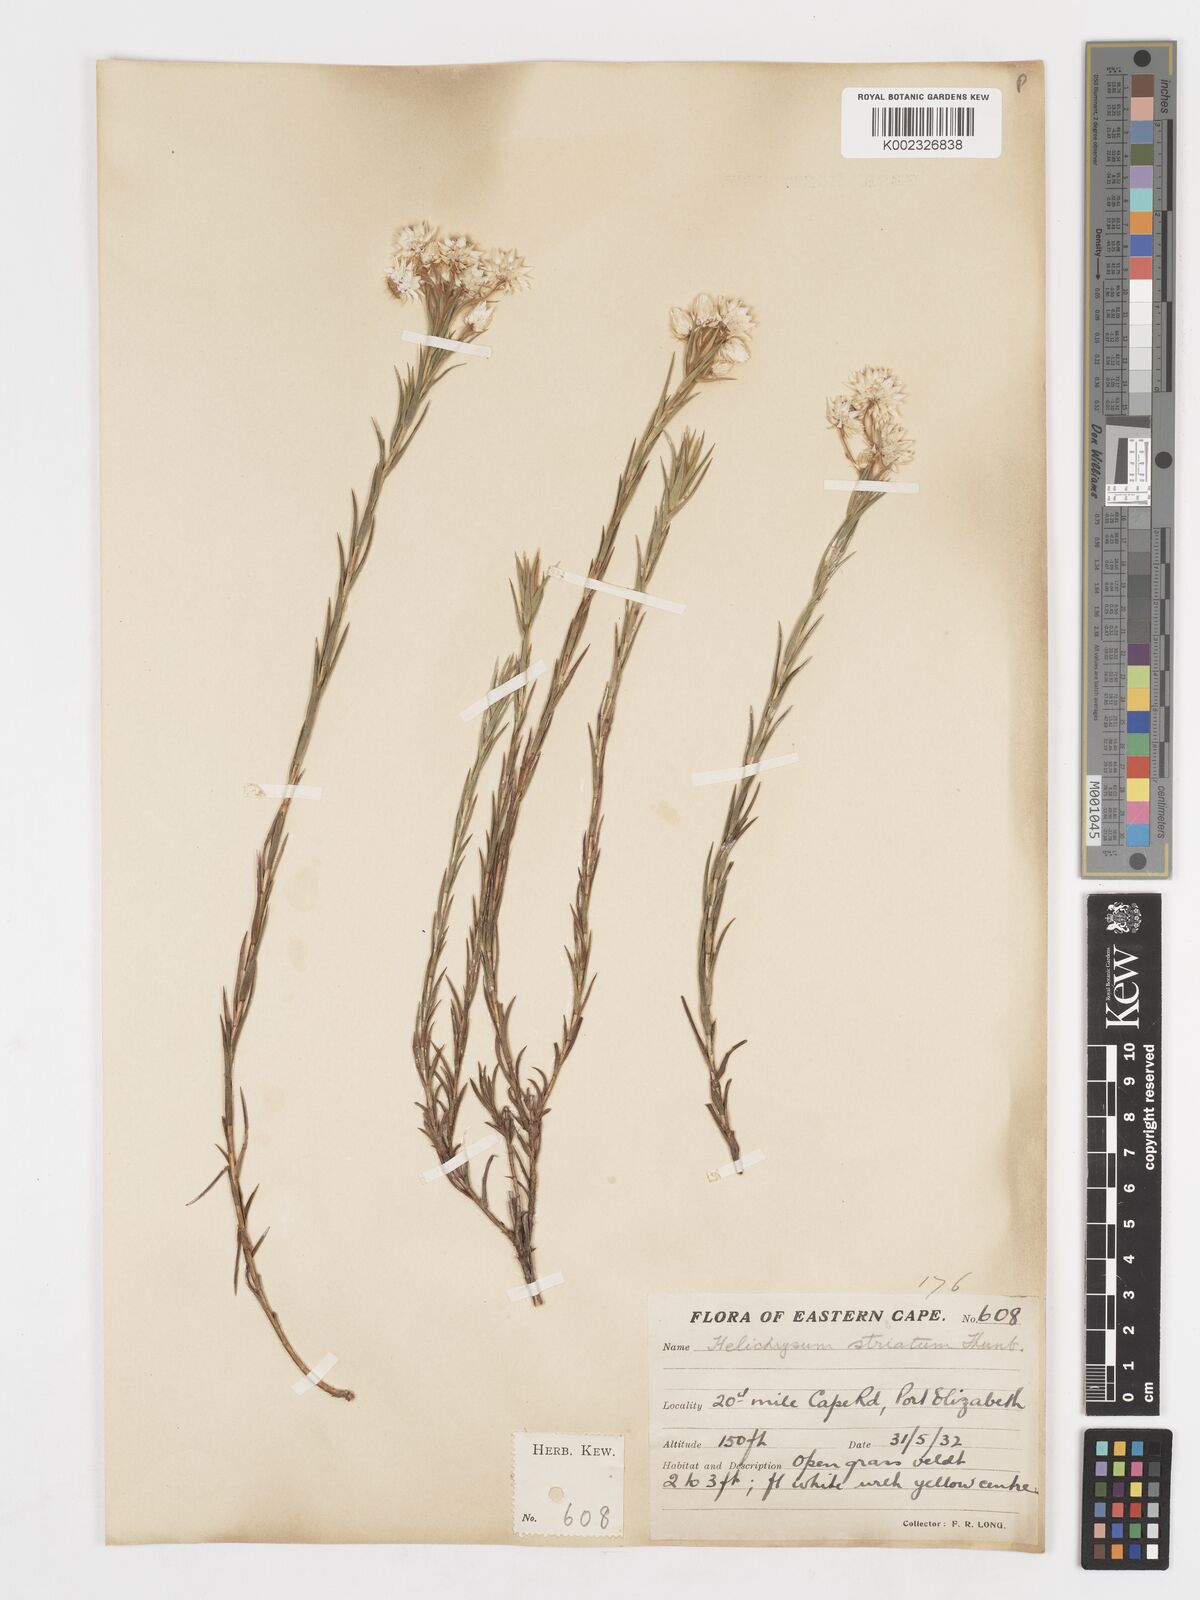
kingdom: Plantae
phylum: Tracheophyta
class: Magnoliopsida
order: Asterales
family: Asteraceae
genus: Achyranthemum
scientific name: Achyranthemum striatum
